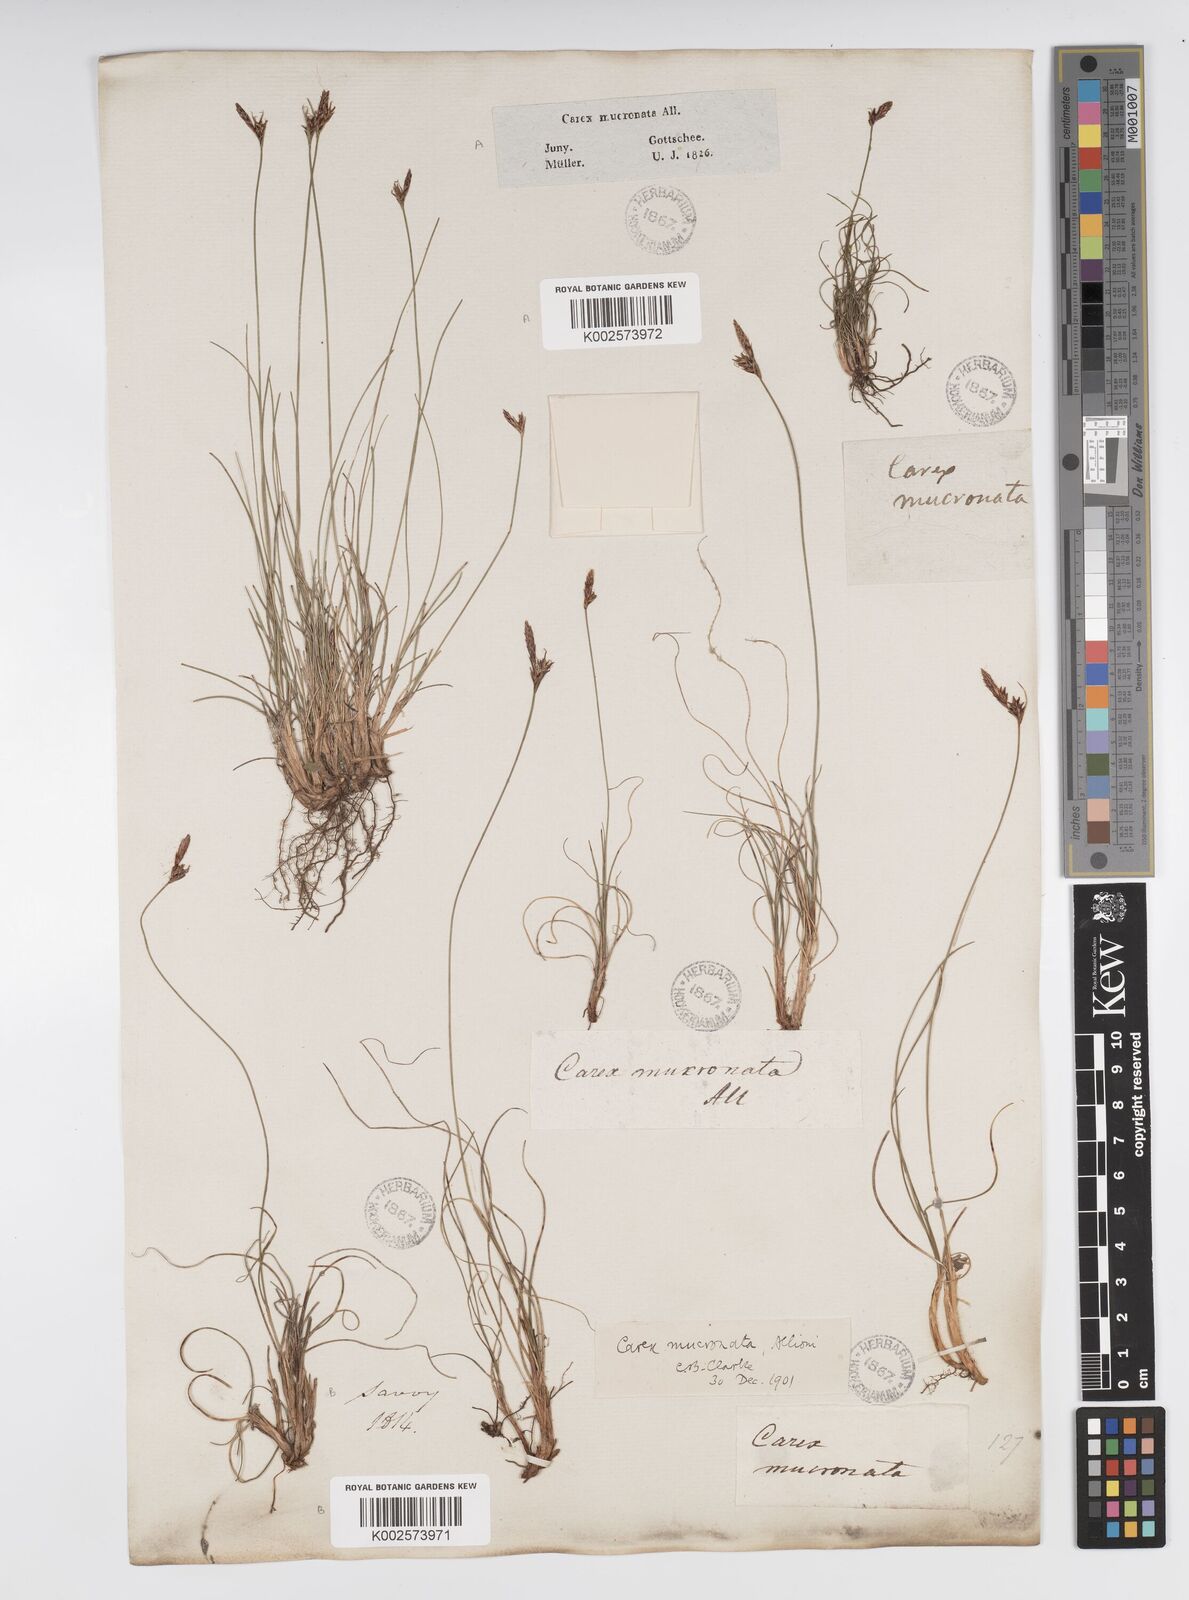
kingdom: Plantae
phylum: Tracheophyta
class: Liliopsida
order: Poales
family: Cyperaceae
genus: Carex
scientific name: Carex mucronata
